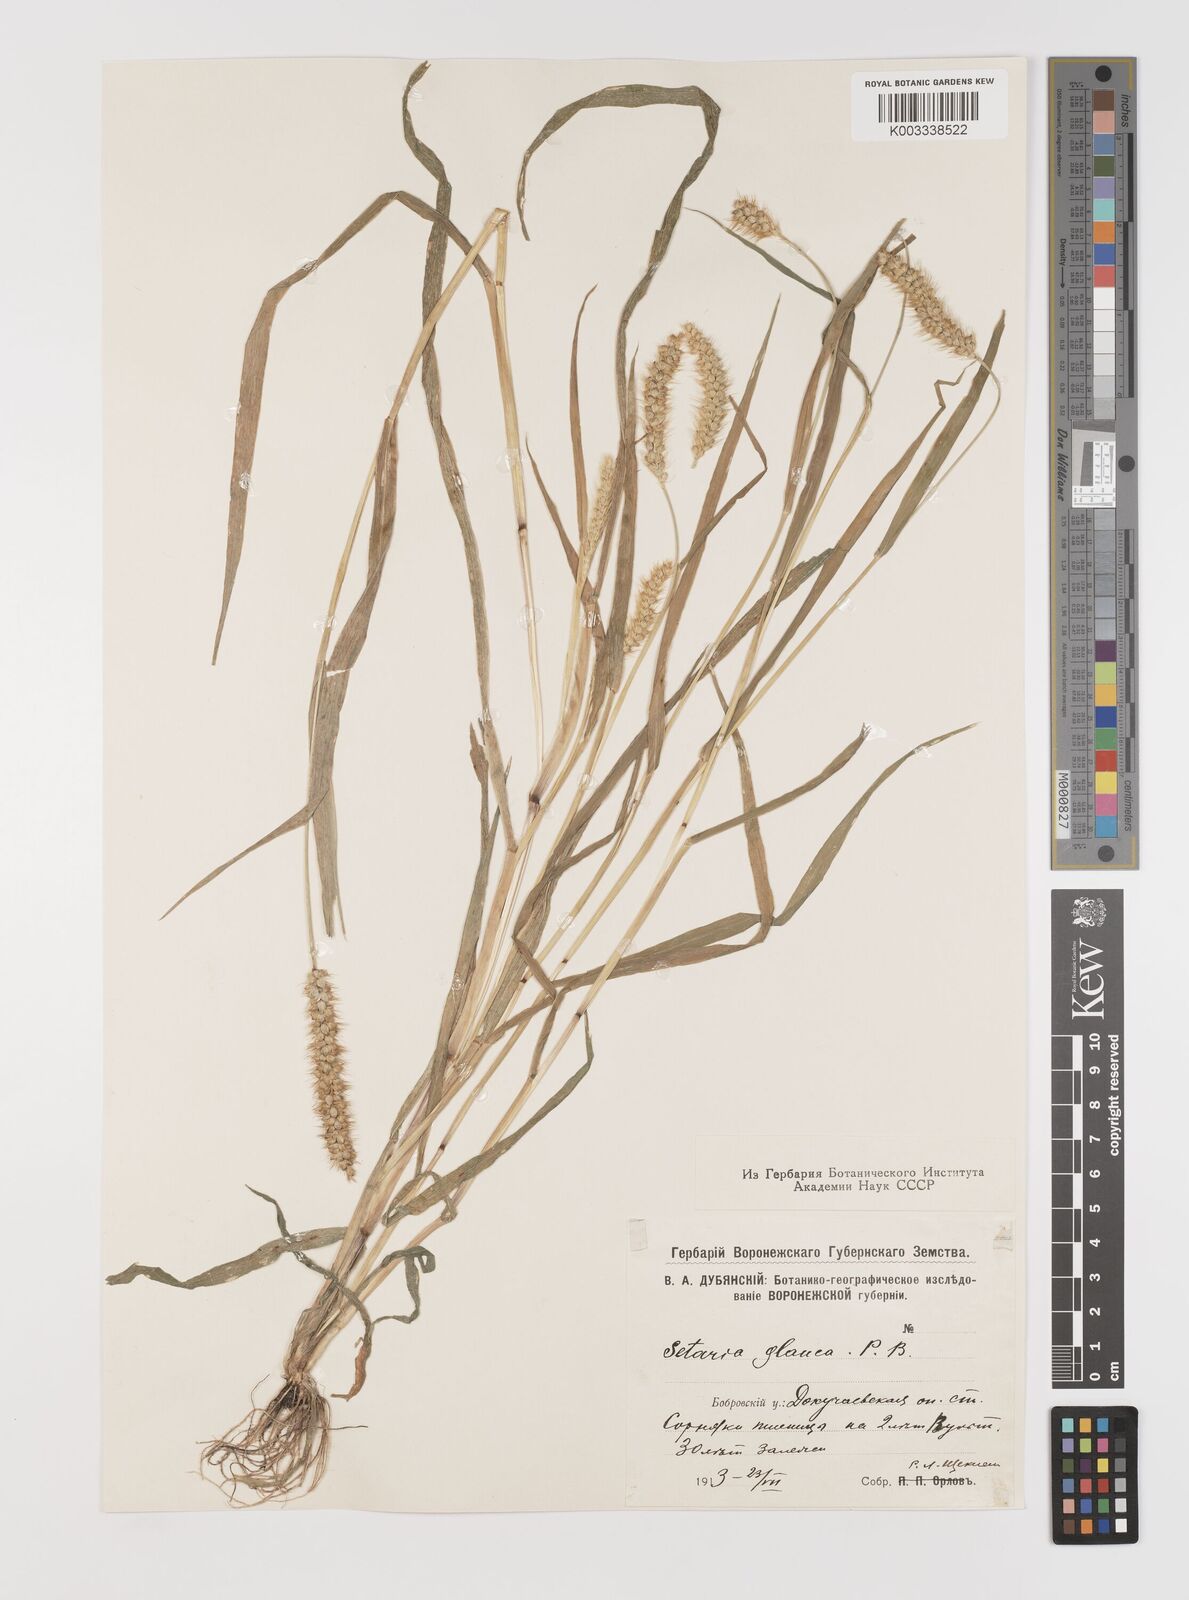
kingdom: Plantae
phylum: Tracheophyta
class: Liliopsida
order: Poales
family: Poaceae
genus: Cenchrus
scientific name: Cenchrus americanus
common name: Pearl millet
